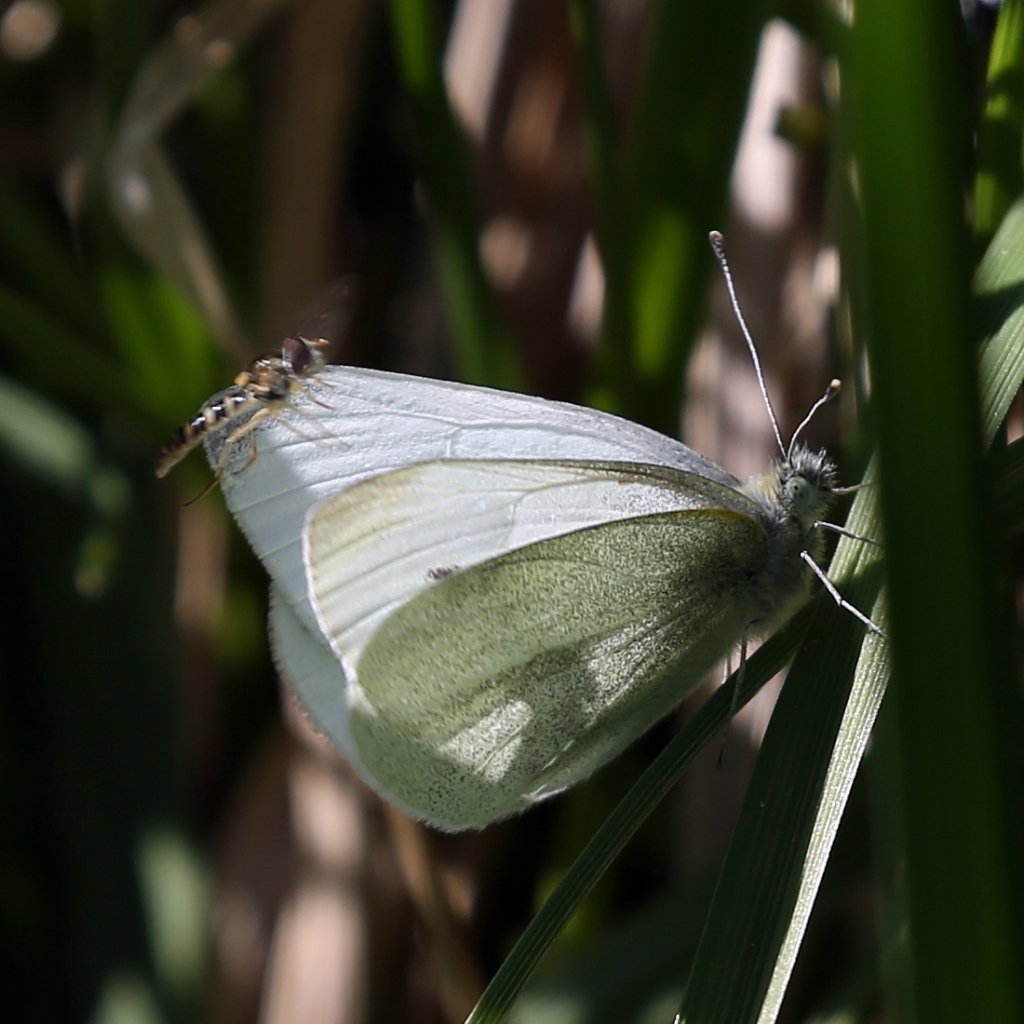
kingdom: Animalia
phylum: Arthropoda
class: Insecta
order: Lepidoptera
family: Pieridae
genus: Pieris
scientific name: Pieris rapae
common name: Cabbage White
